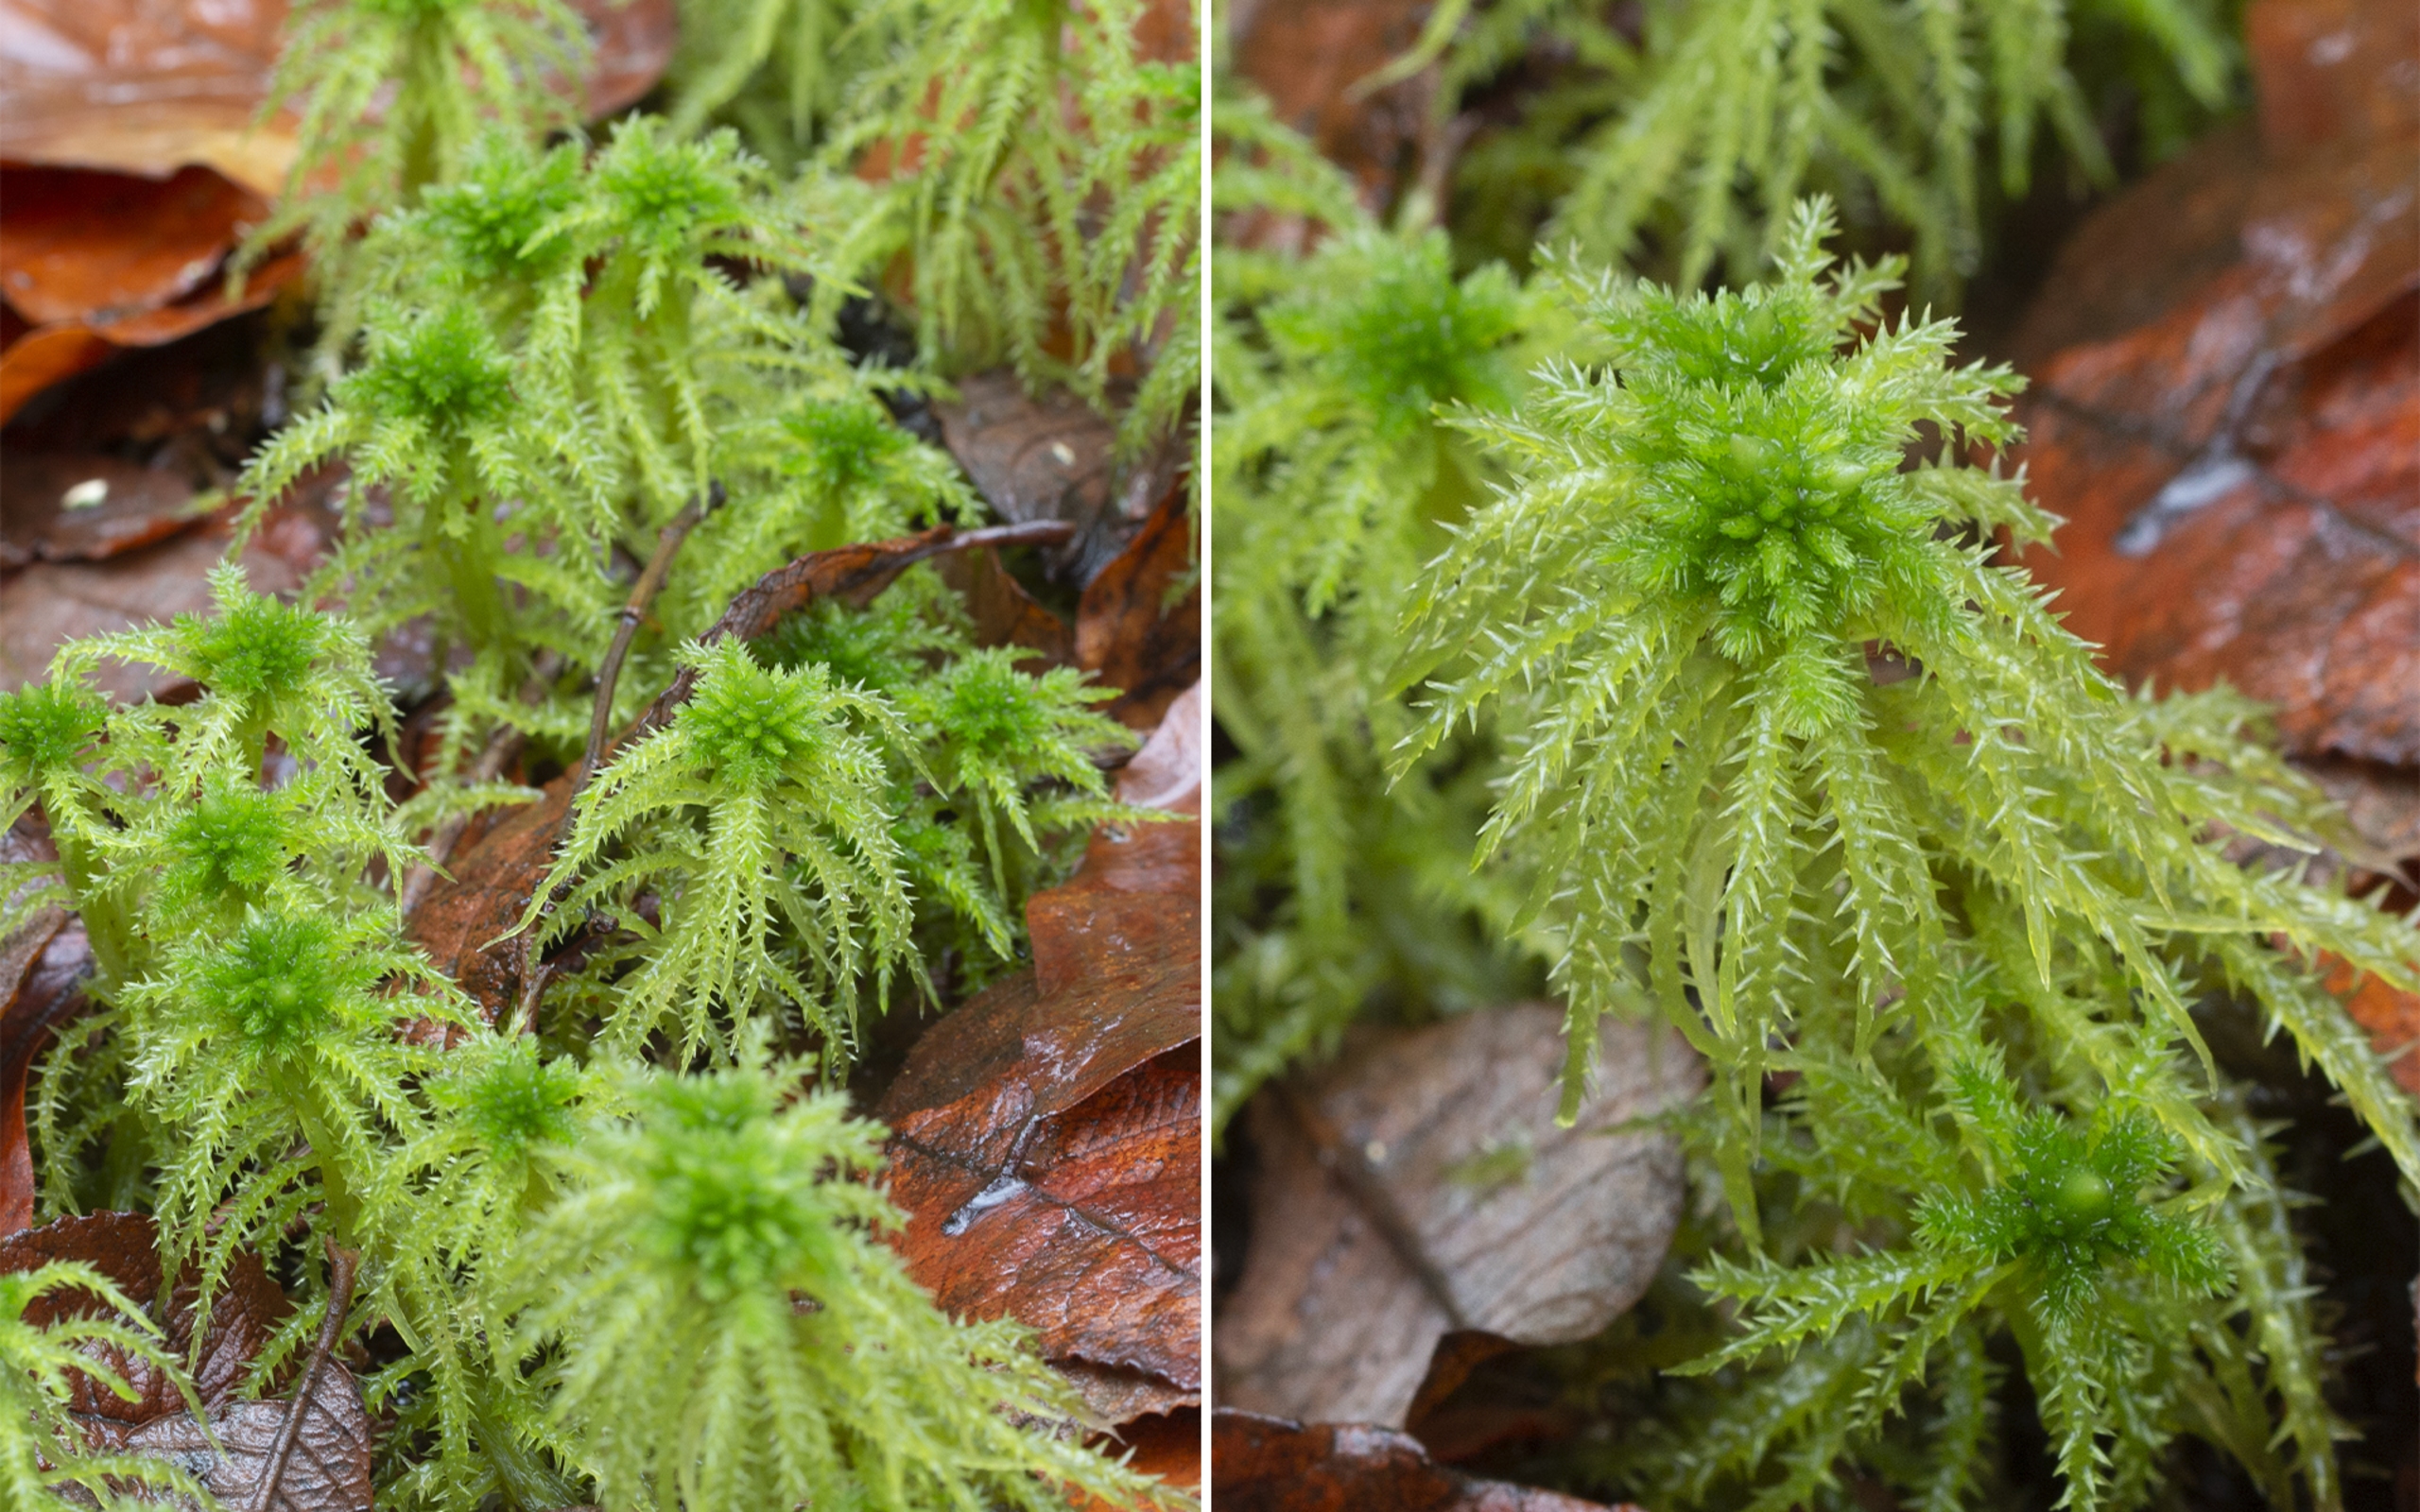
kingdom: Plantae
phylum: Bryophyta
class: Sphagnopsida
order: Sphagnales
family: Sphagnaceae
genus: Sphagnum
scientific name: Sphagnum squarrosum
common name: Udspærret tørvemos
